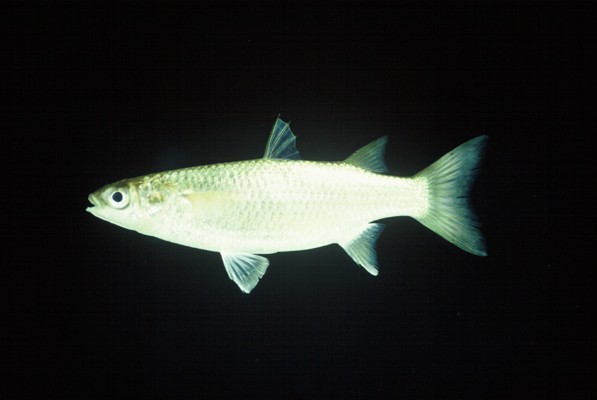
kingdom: Animalia
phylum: Chordata
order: Mugiliformes
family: Mugilidae
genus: Planiliza
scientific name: Planiliza macrolepis
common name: Largescale mullet
